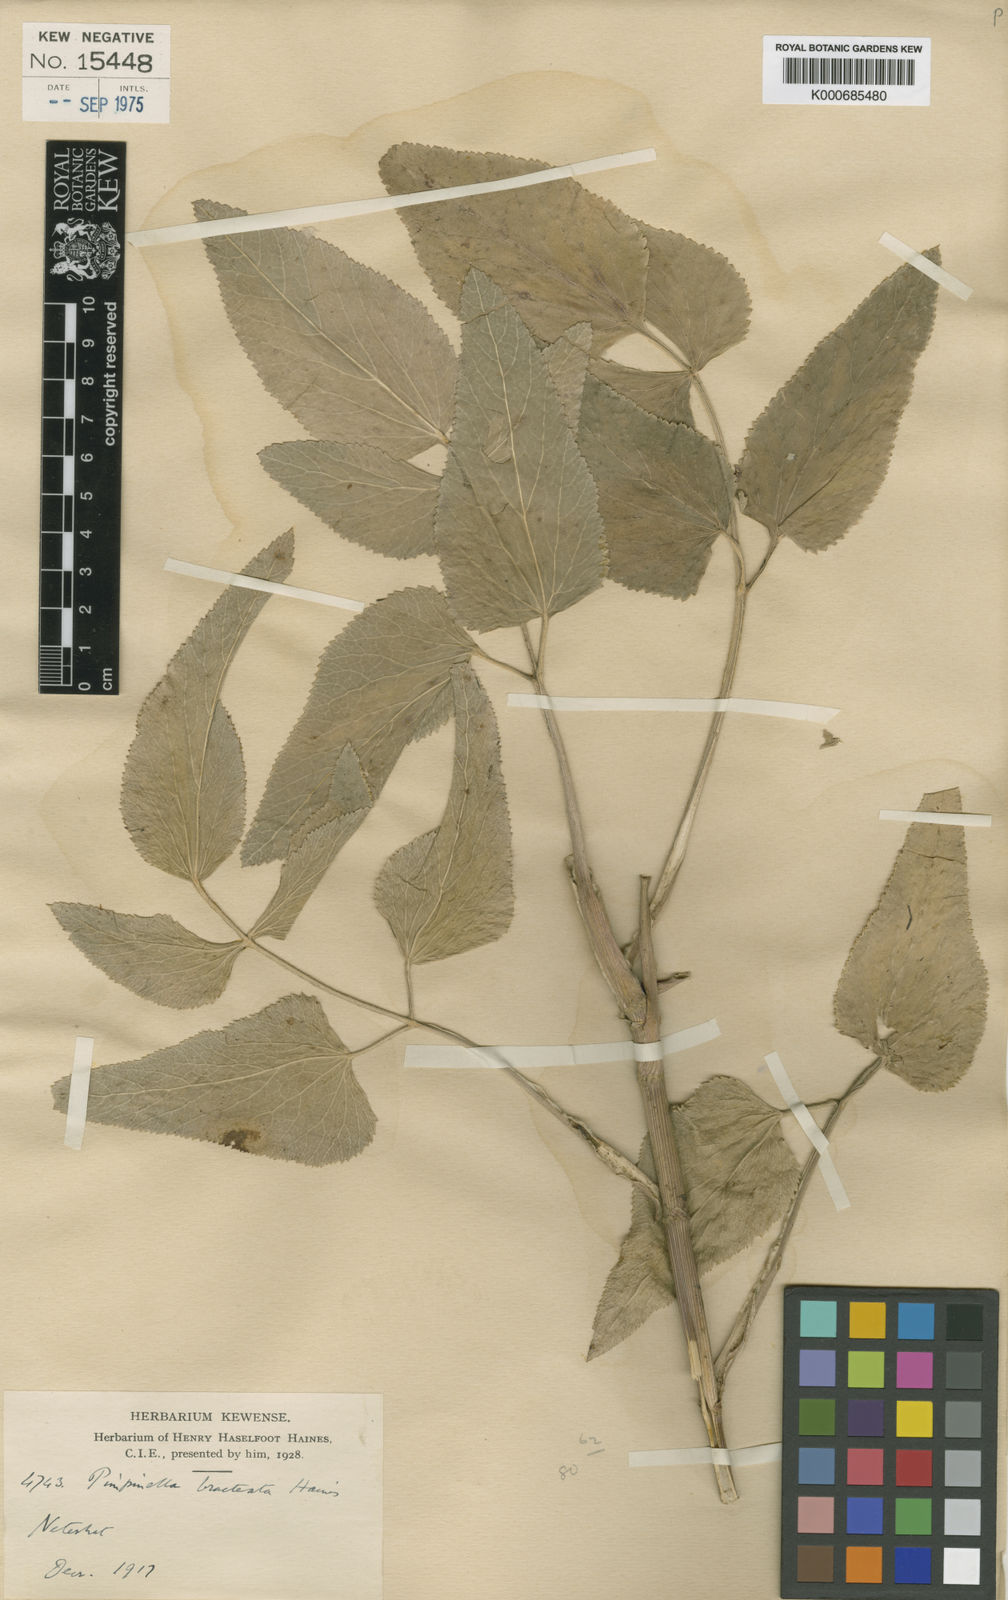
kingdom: Plantae
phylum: Tracheophyta
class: Magnoliopsida
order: Apiales
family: Apiaceae
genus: Pimpinella
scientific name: Pimpinella bracteata
